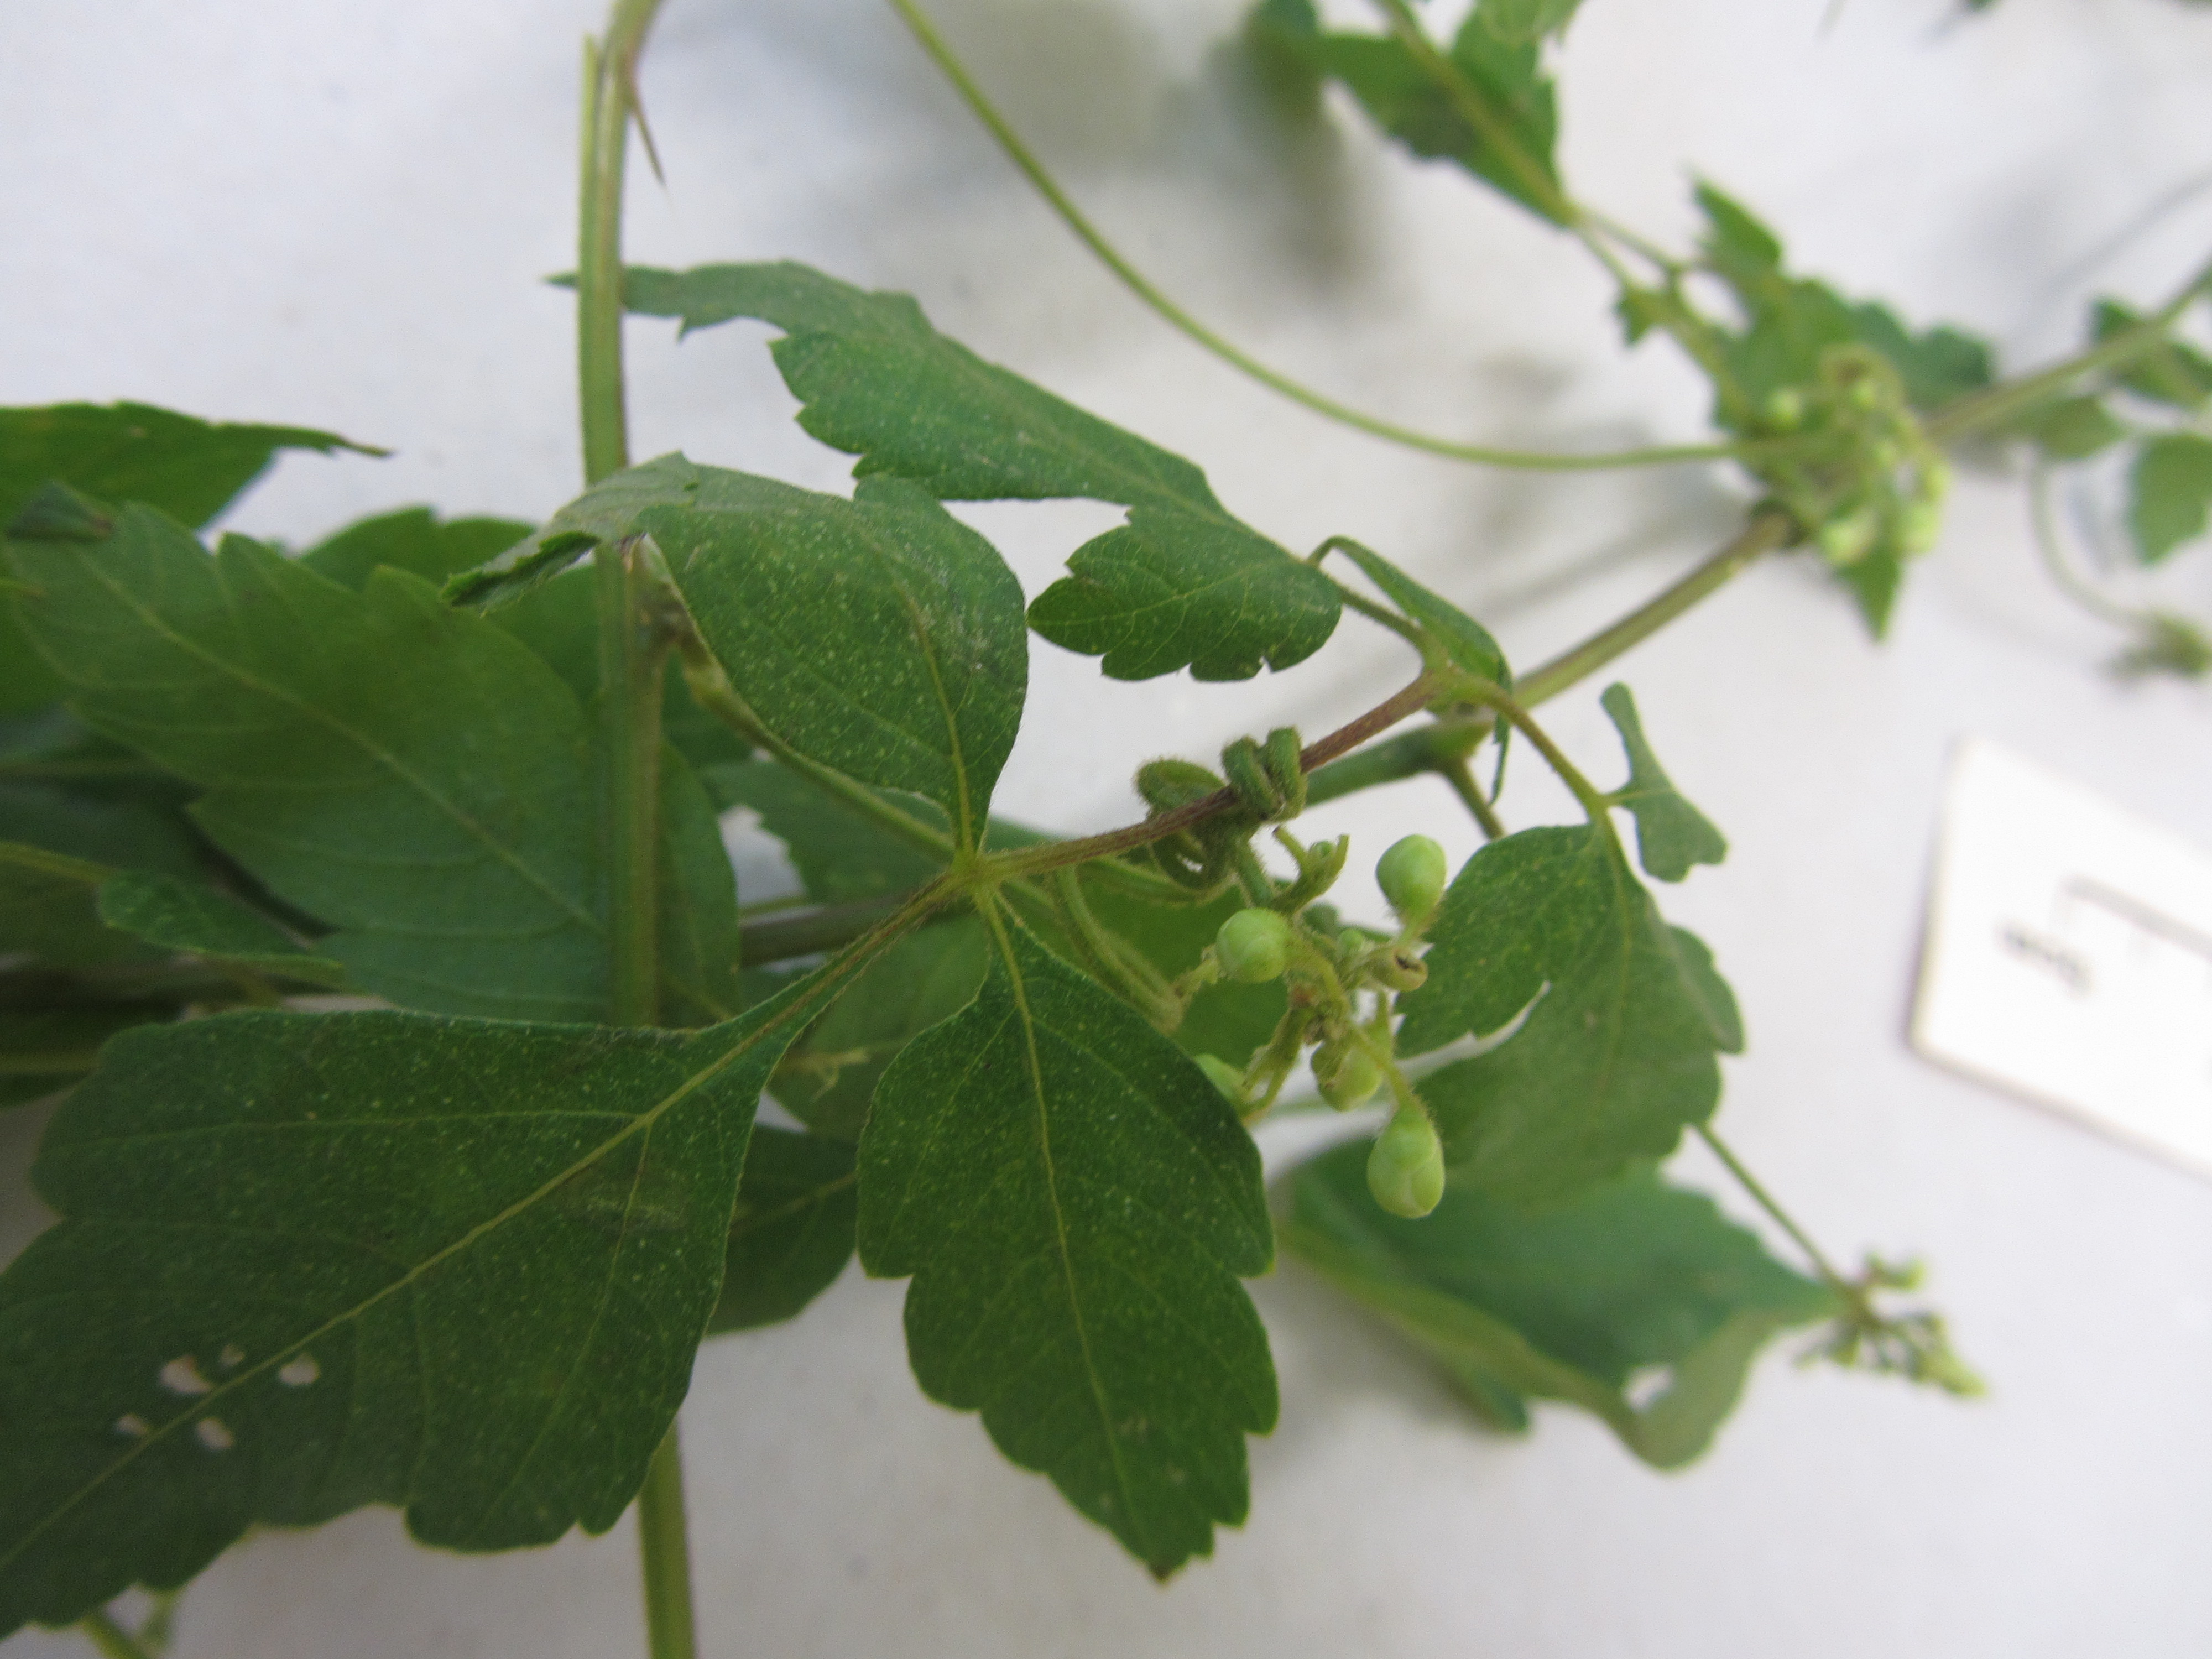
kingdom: Plantae
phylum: Tracheophyta
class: Magnoliopsida
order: Sapindales
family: Sapindaceae
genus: Cardiospermum
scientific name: Cardiospermum grandiflorum
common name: Balloon vine
